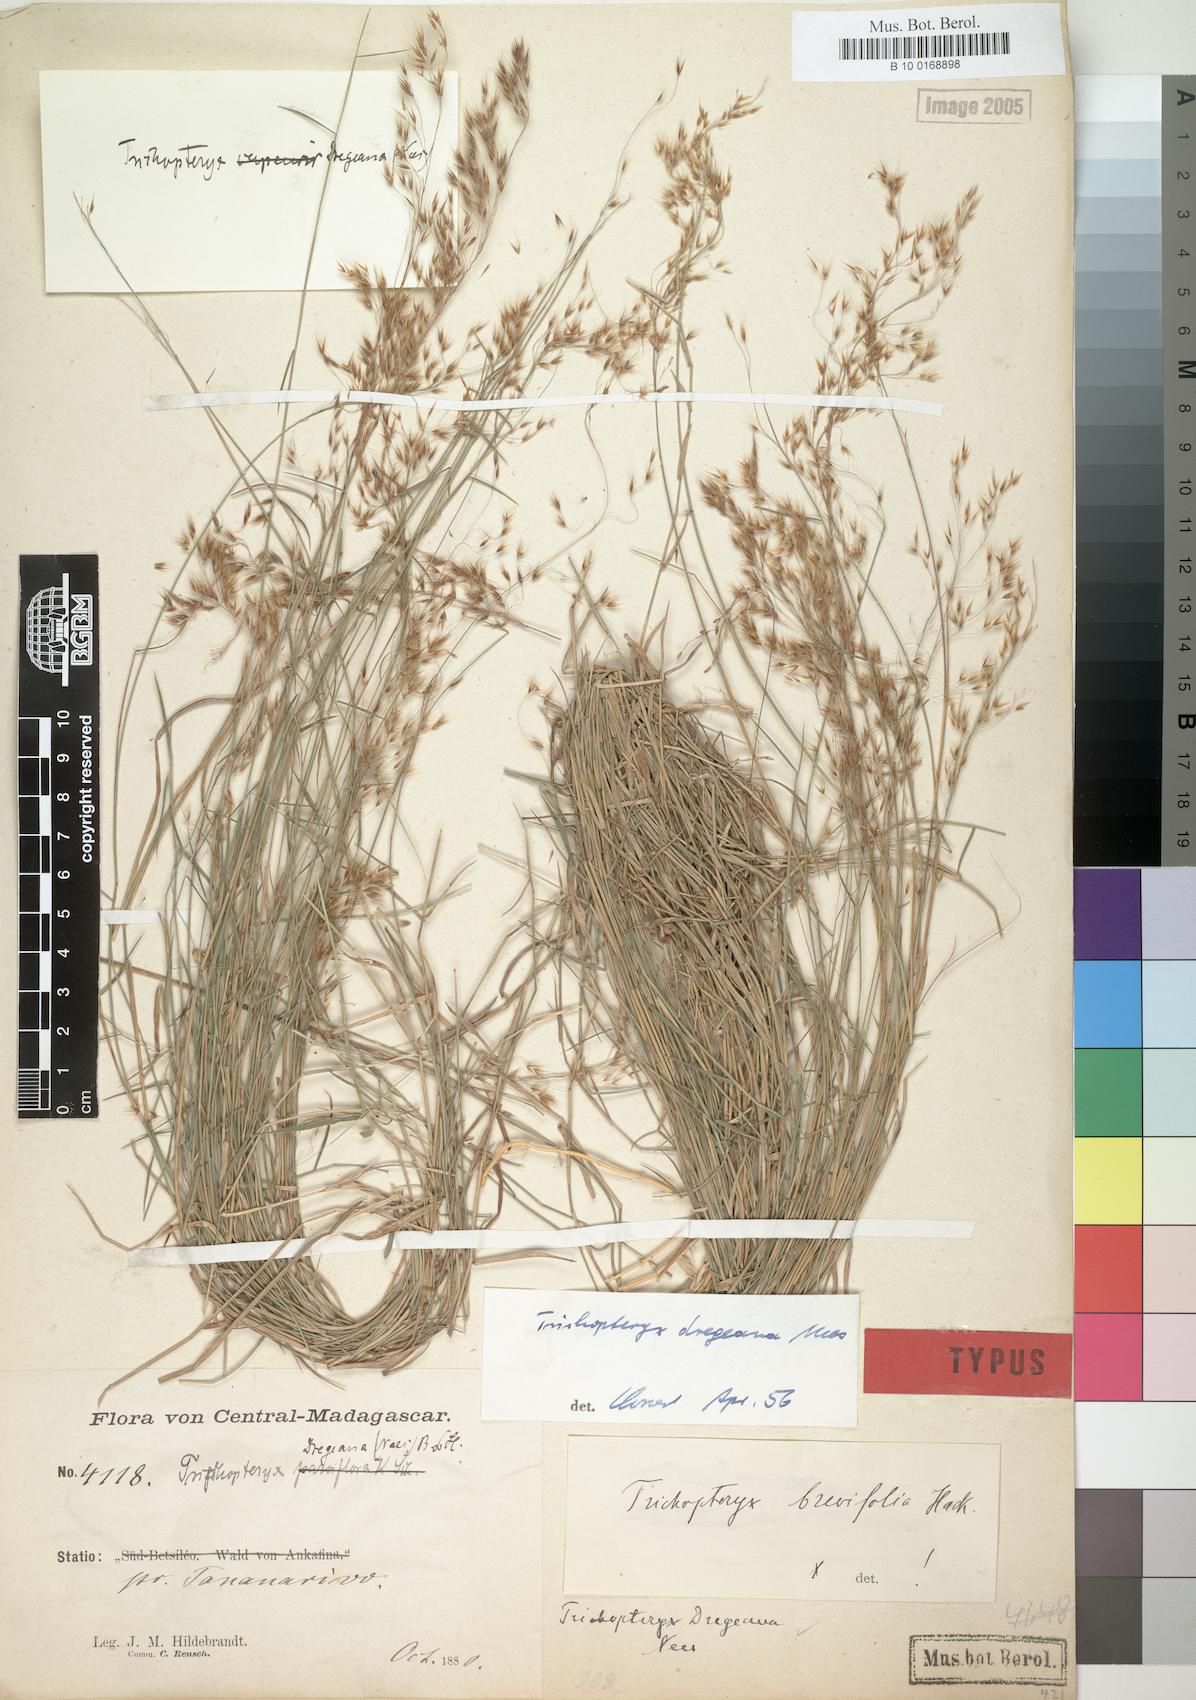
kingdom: Plantae
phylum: Tracheophyta
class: Liliopsida
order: Poales
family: Poaceae
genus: Trichopteryx
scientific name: Trichopteryx dregeana
